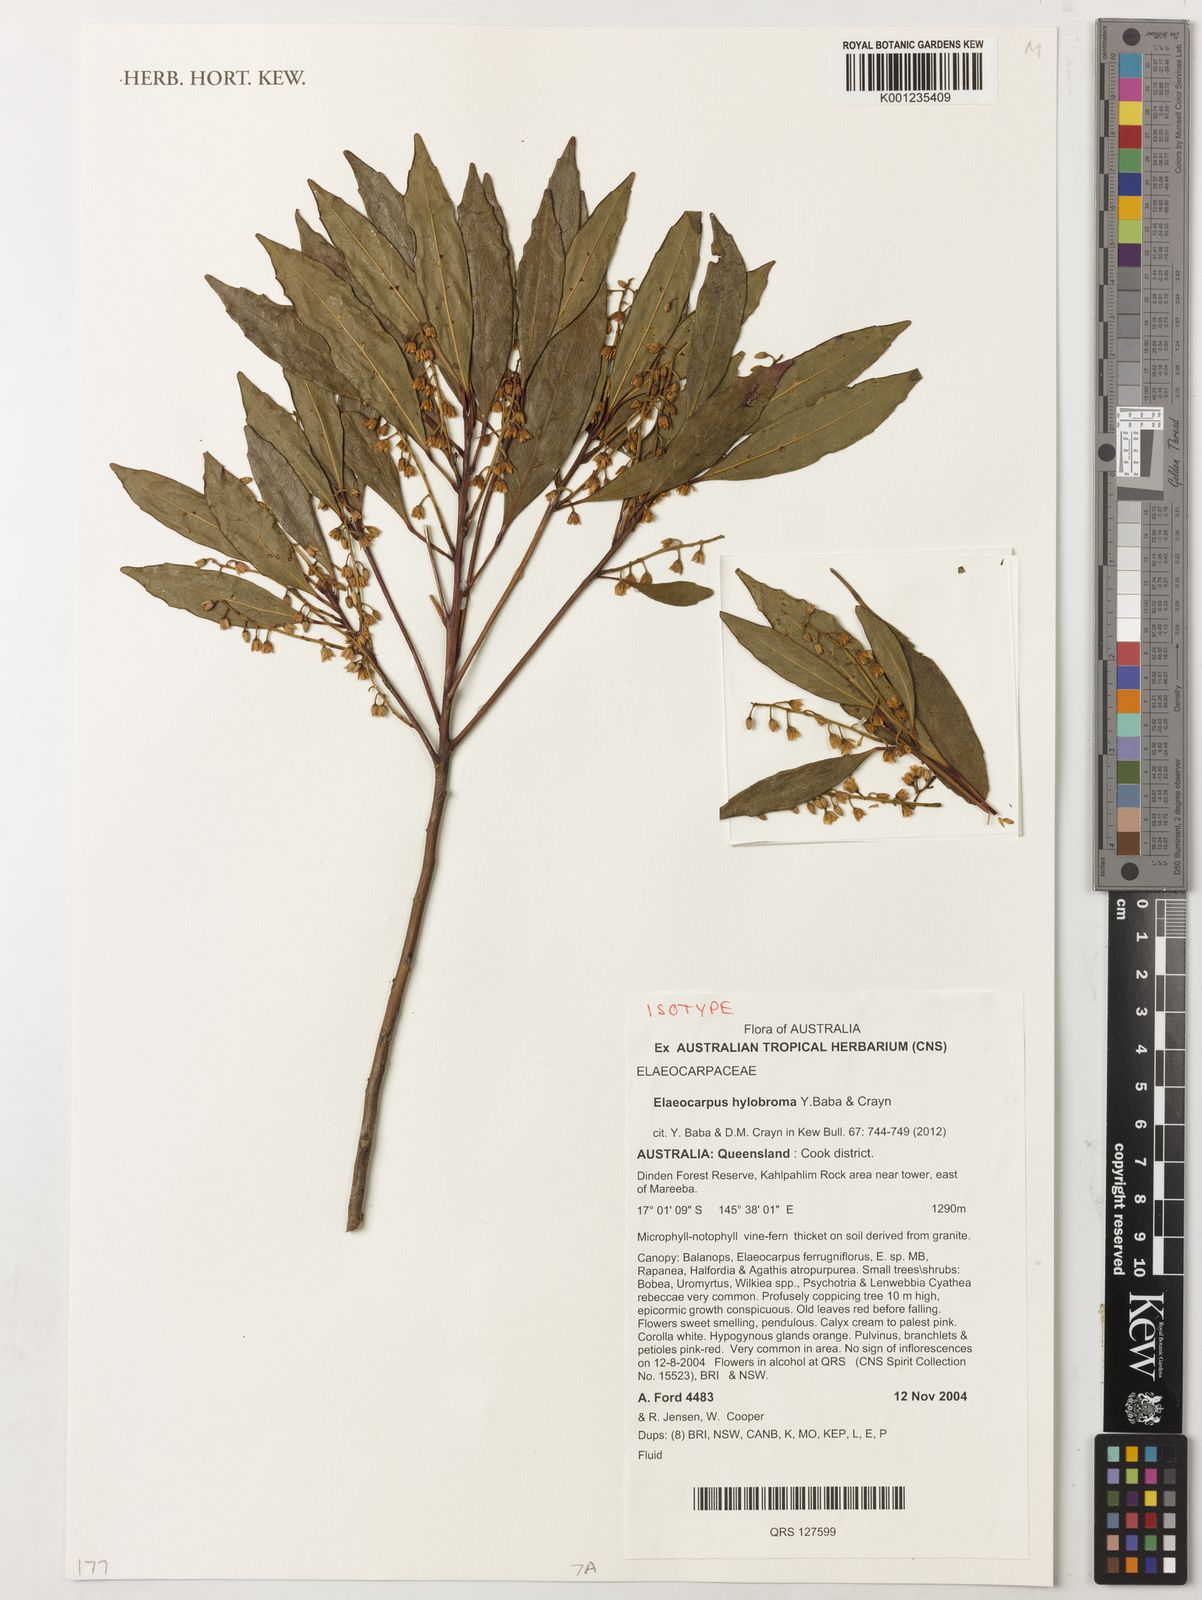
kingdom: Plantae
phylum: Tracheophyta
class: Magnoliopsida
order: Oxalidales
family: Elaeocarpaceae
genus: Elaeocarpus
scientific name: Elaeocarpus hylobroma
